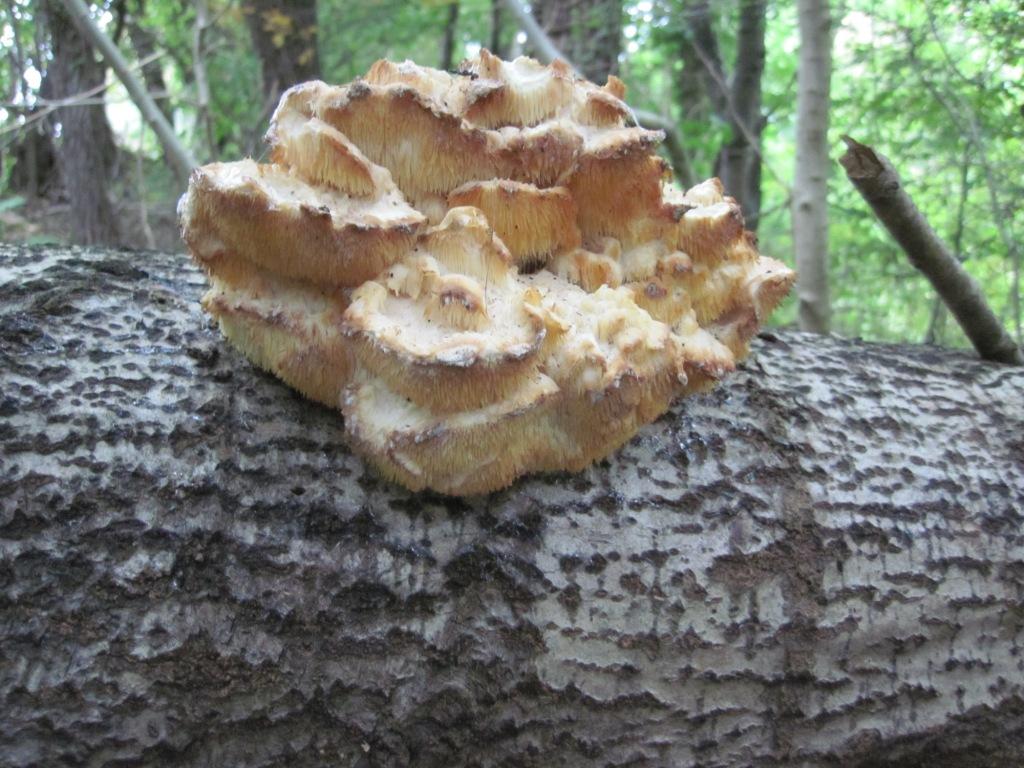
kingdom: Fungi
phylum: Basidiomycota
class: Agaricomycetes
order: Russulales
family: Hericiaceae
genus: Hericium
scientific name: Hericium cirrhatum
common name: børstepigsvamp
